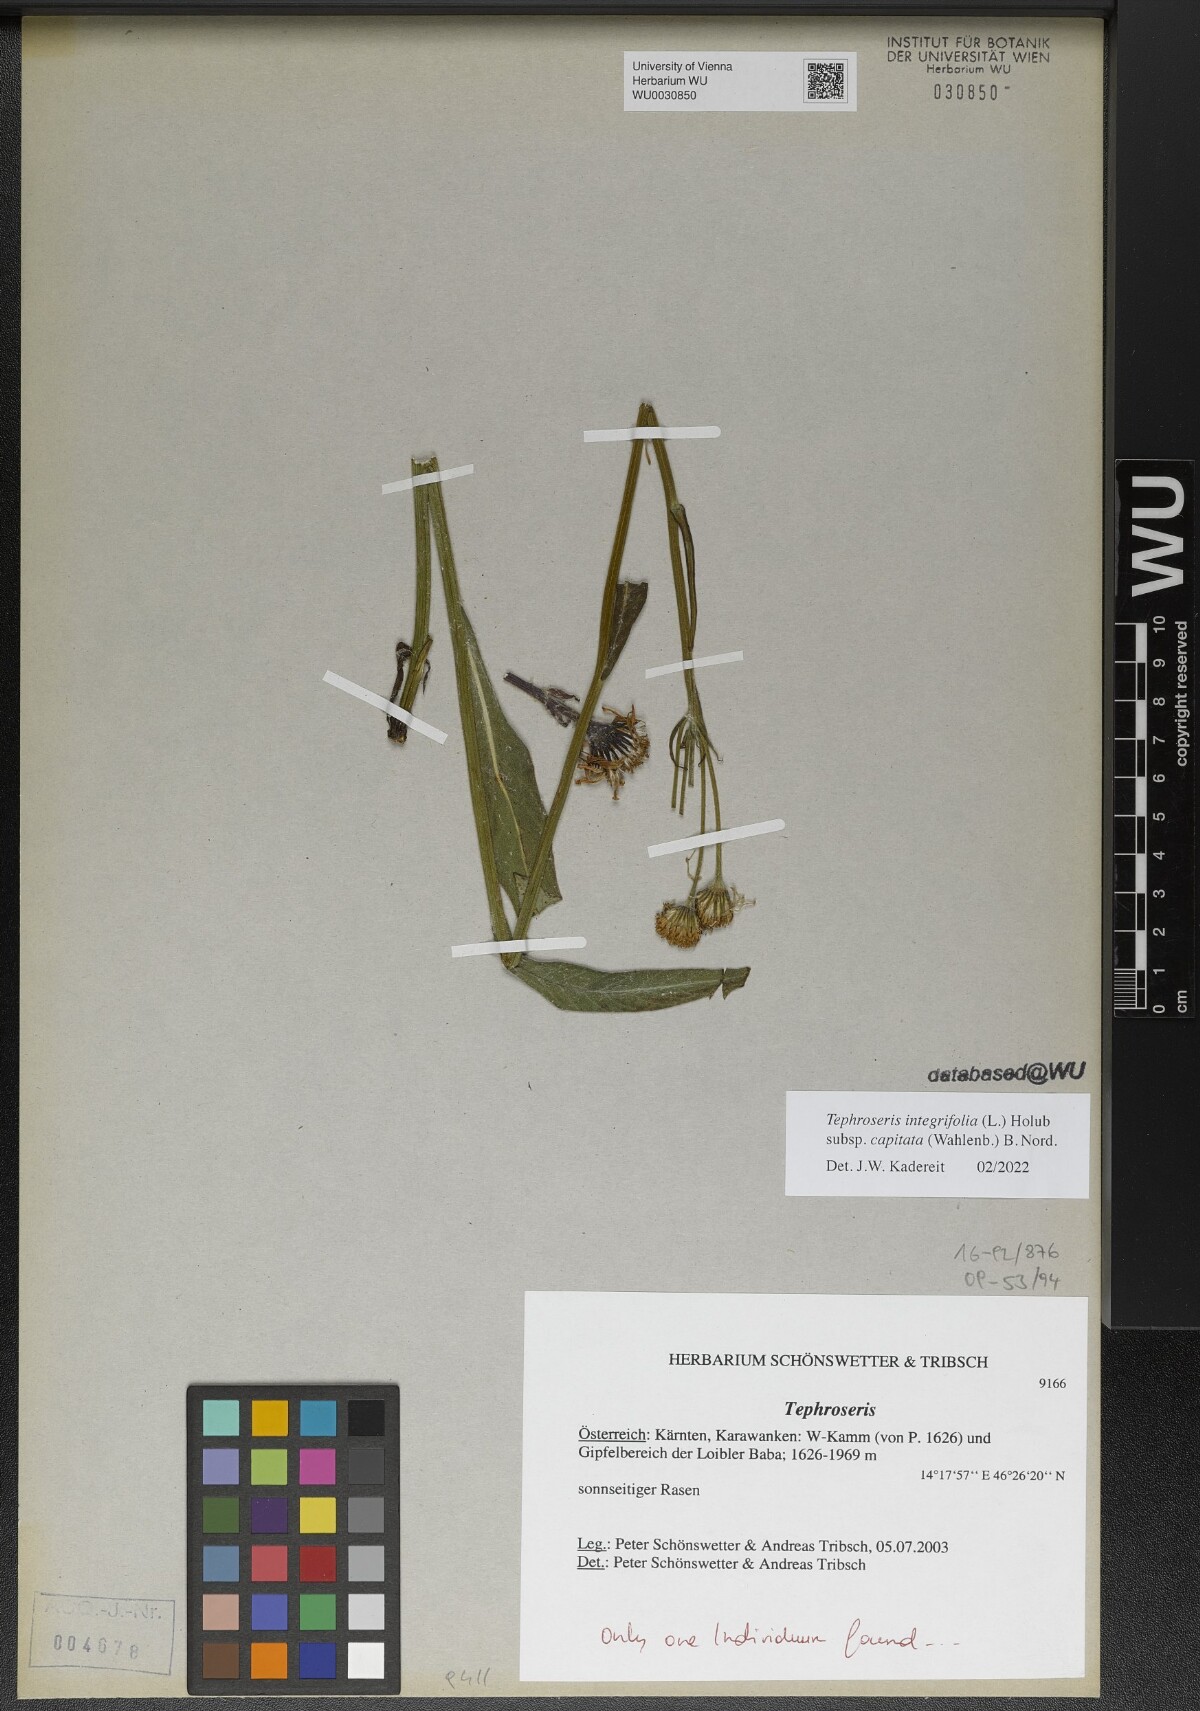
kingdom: Plantae
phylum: Tracheophyta
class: Magnoliopsida
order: Asterales
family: Asteraceae
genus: Tephroseris
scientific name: Tephroseris integrifolia
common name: Field fleawort
